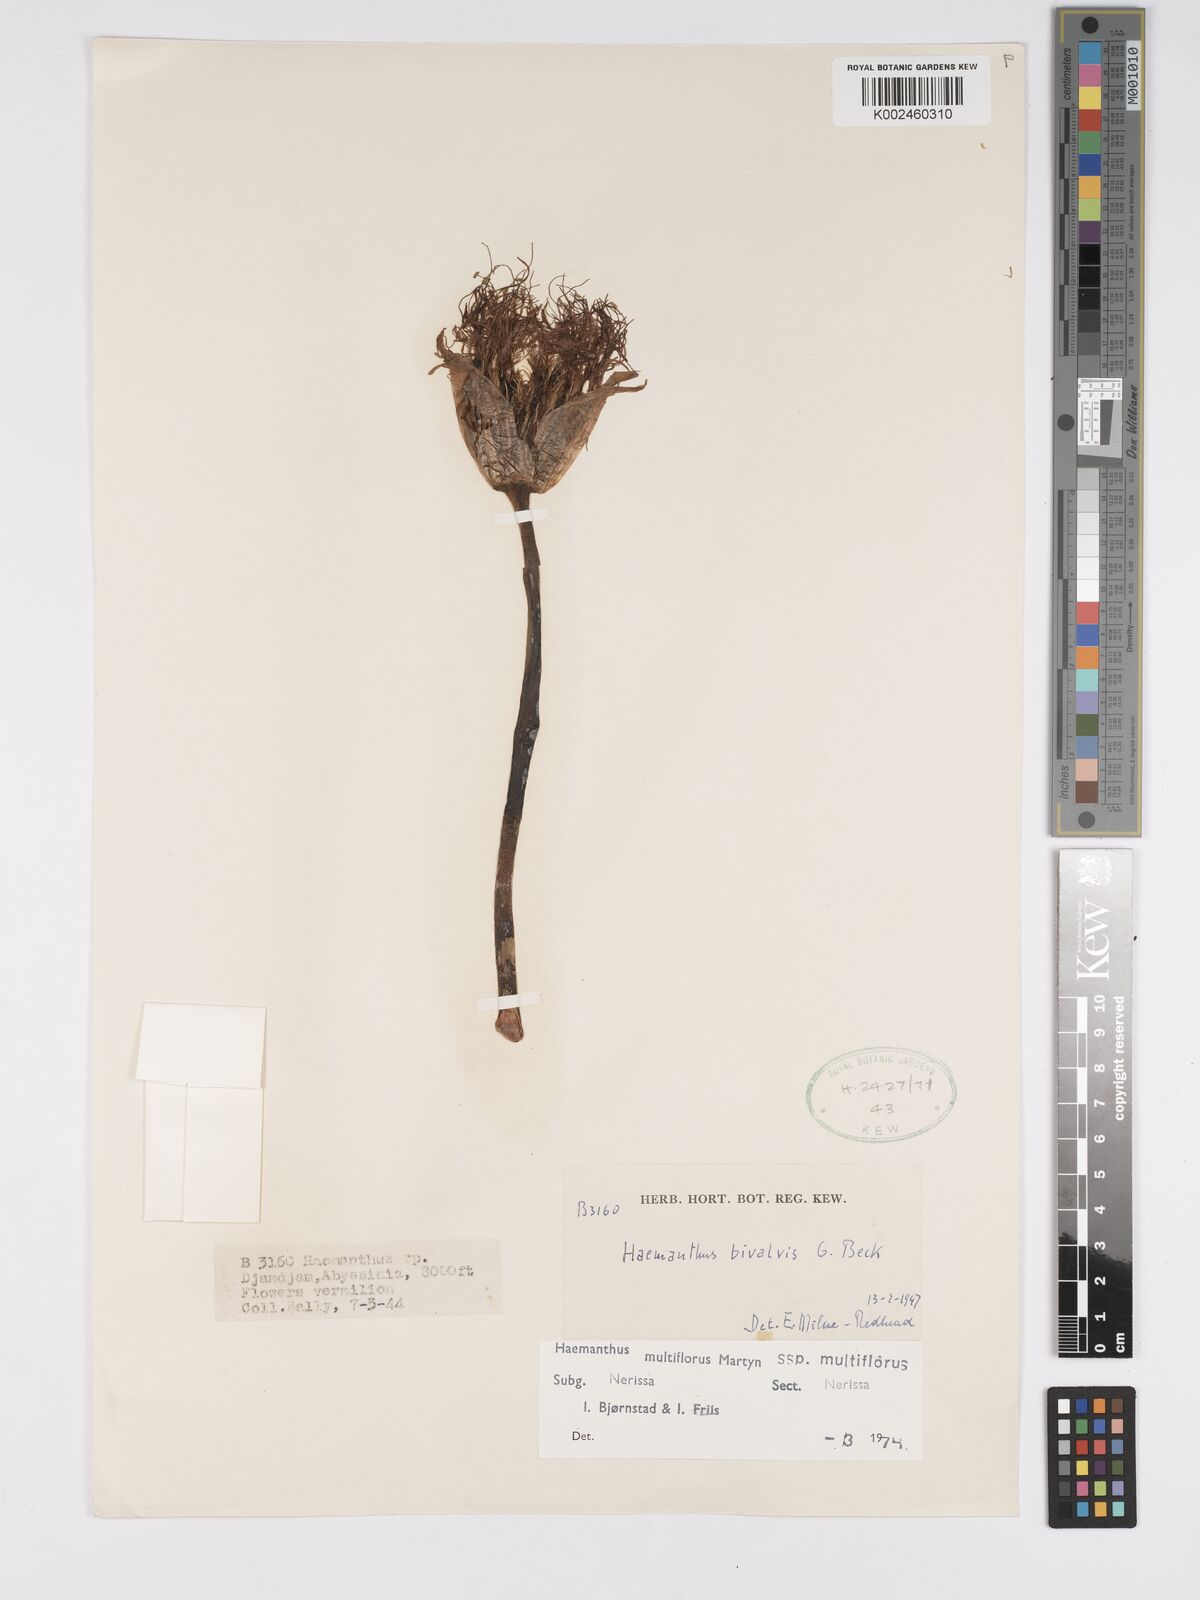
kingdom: Plantae
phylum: Tracheophyta
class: Liliopsida
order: Asparagales
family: Amaryllidaceae
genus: Scadoxus
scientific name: Scadoxus multiflorus
